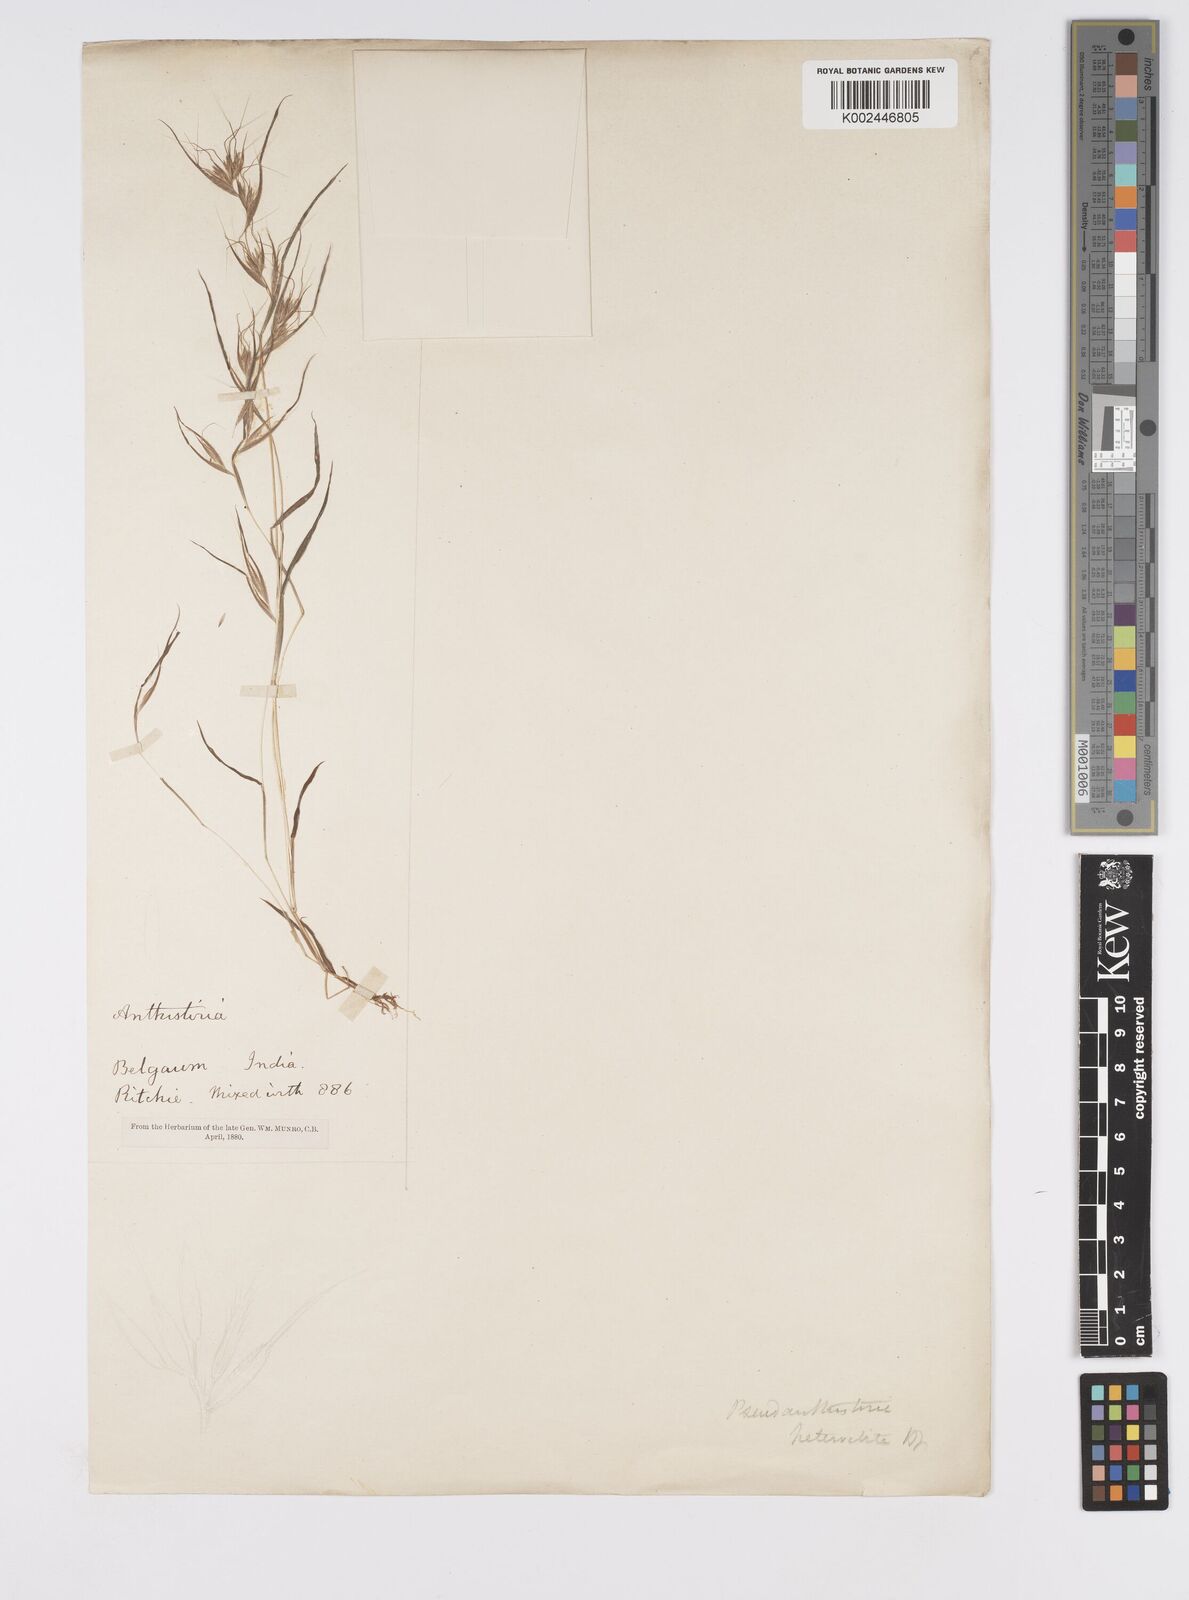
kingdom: Plantae
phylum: Tracheophyta
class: Liliopsida
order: Poales
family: Poaceae
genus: Pseudanthistiria
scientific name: Pseudanthistiria heteroclita
